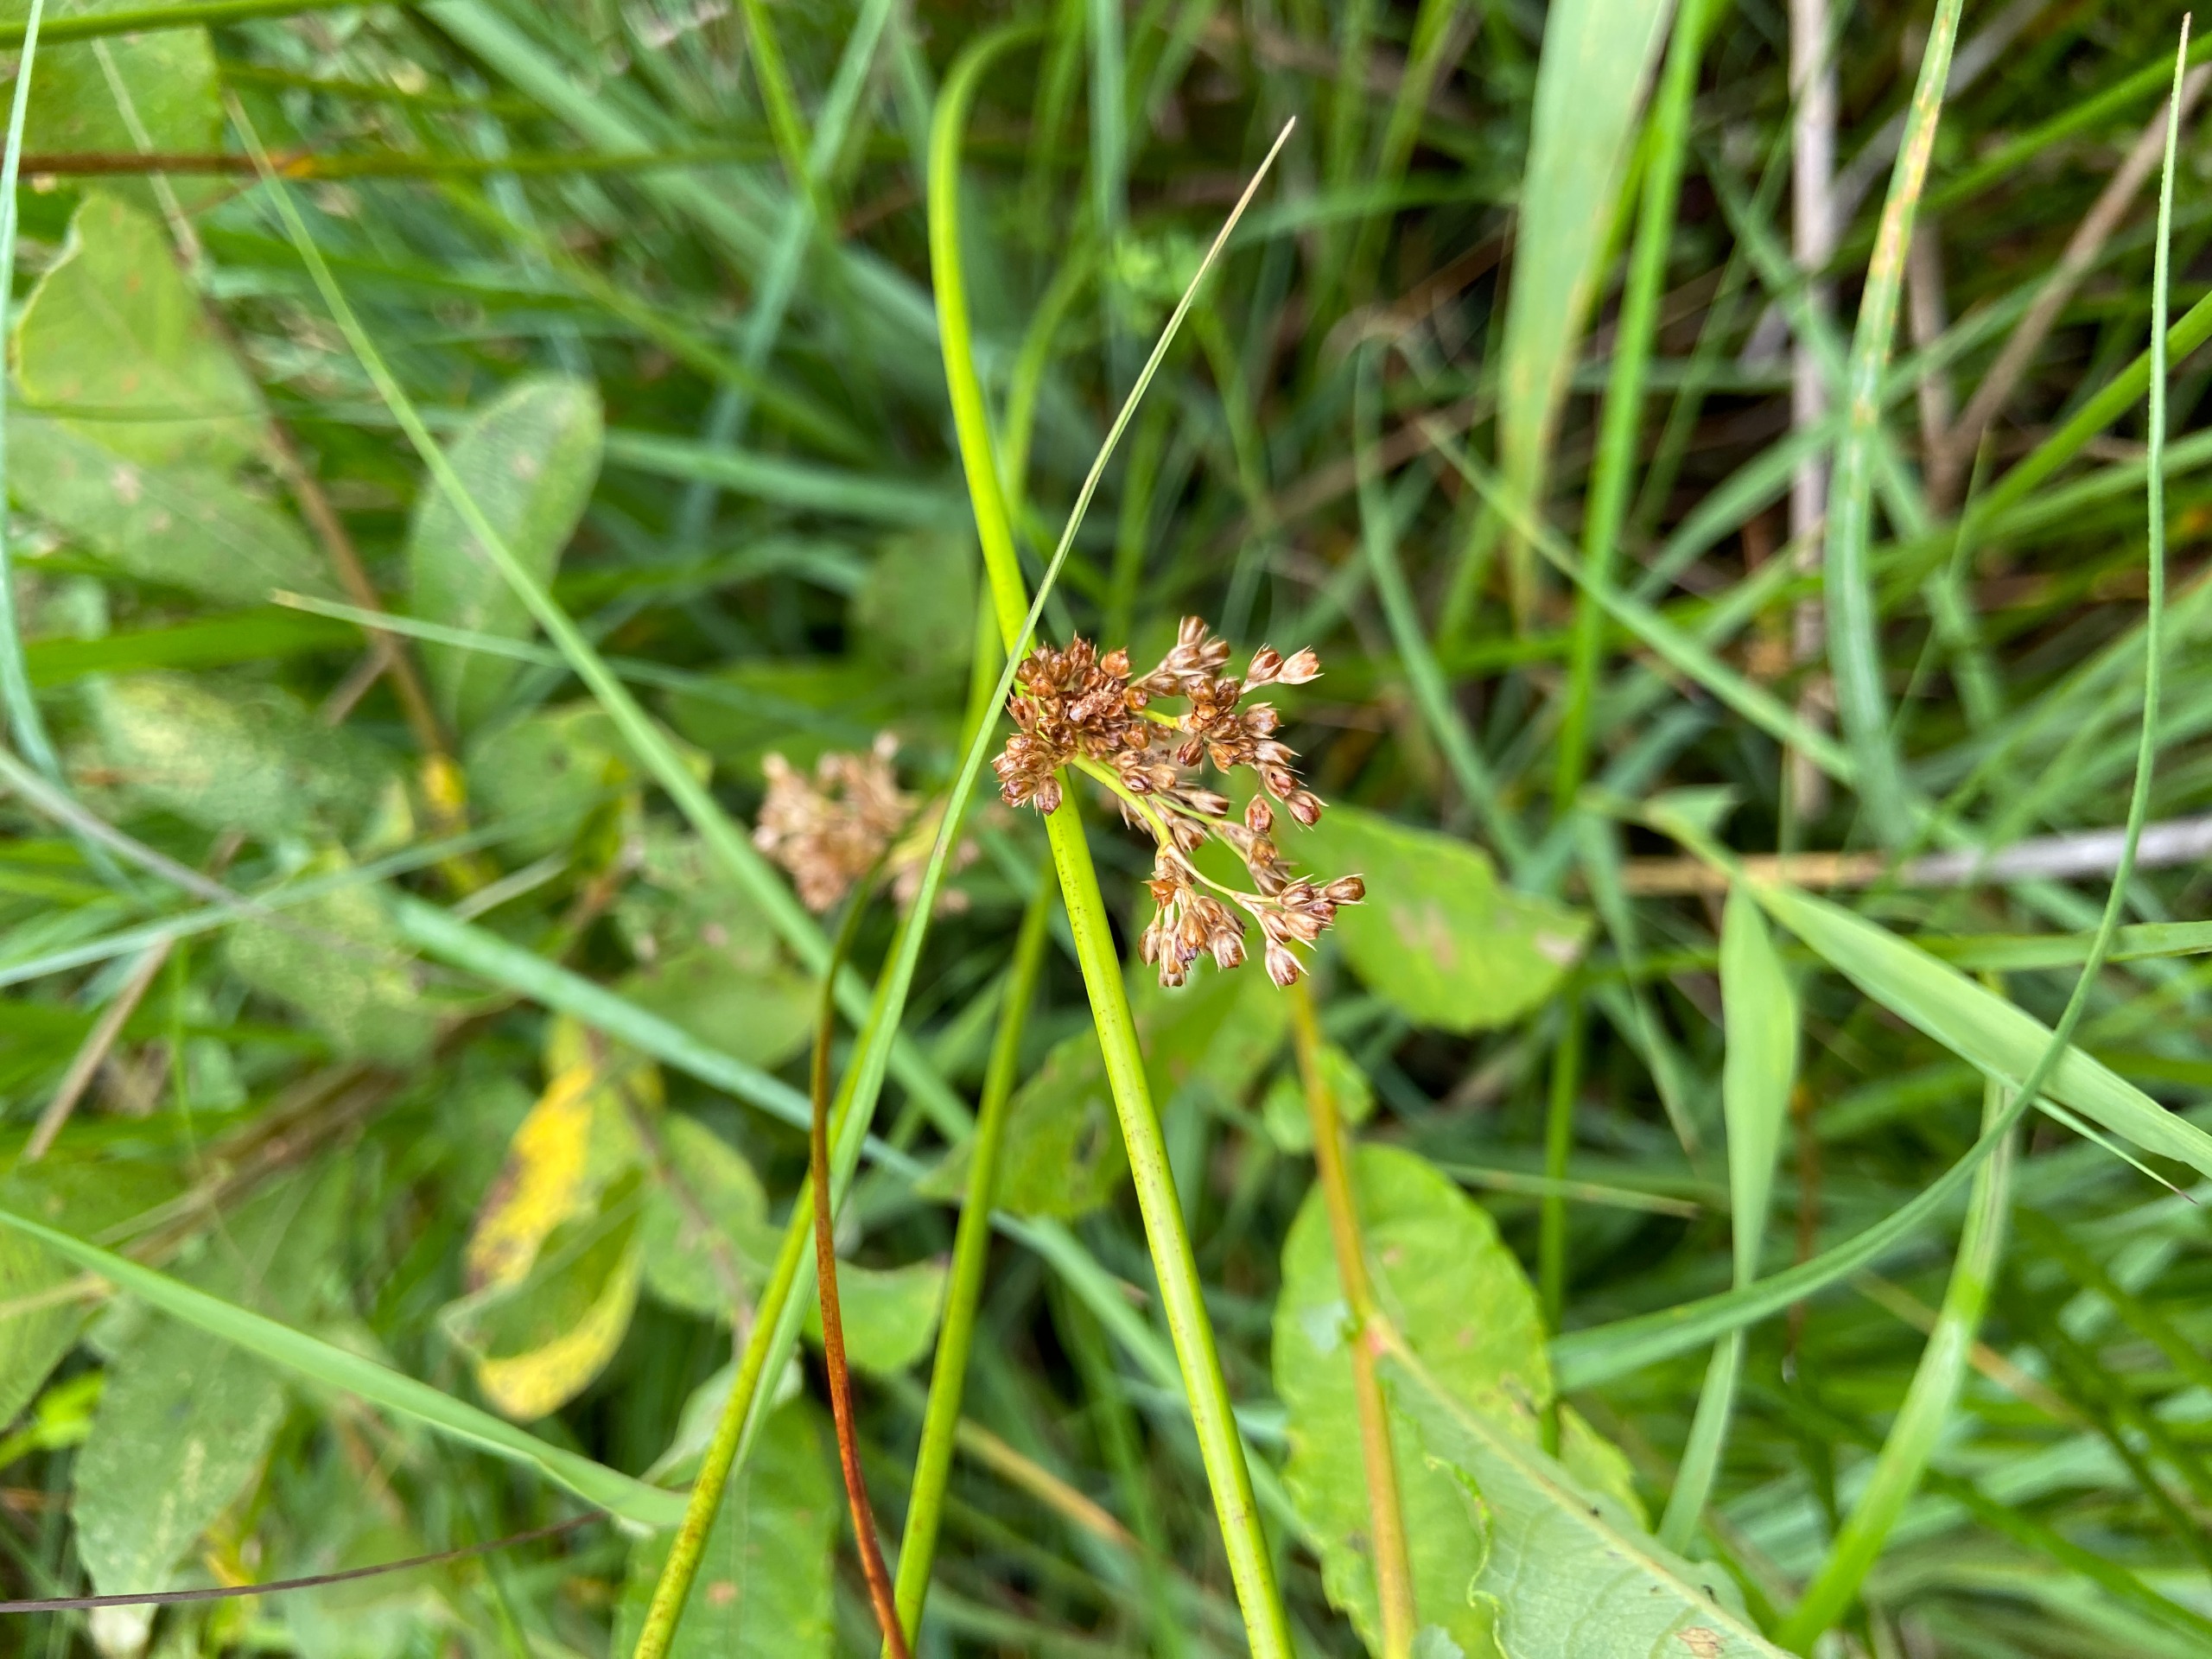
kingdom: Plantae
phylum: Tracheophyta
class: Liliopsida
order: Poales
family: Juncaceae
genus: Juncus
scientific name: Juncus effusus
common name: Lyse-siv
